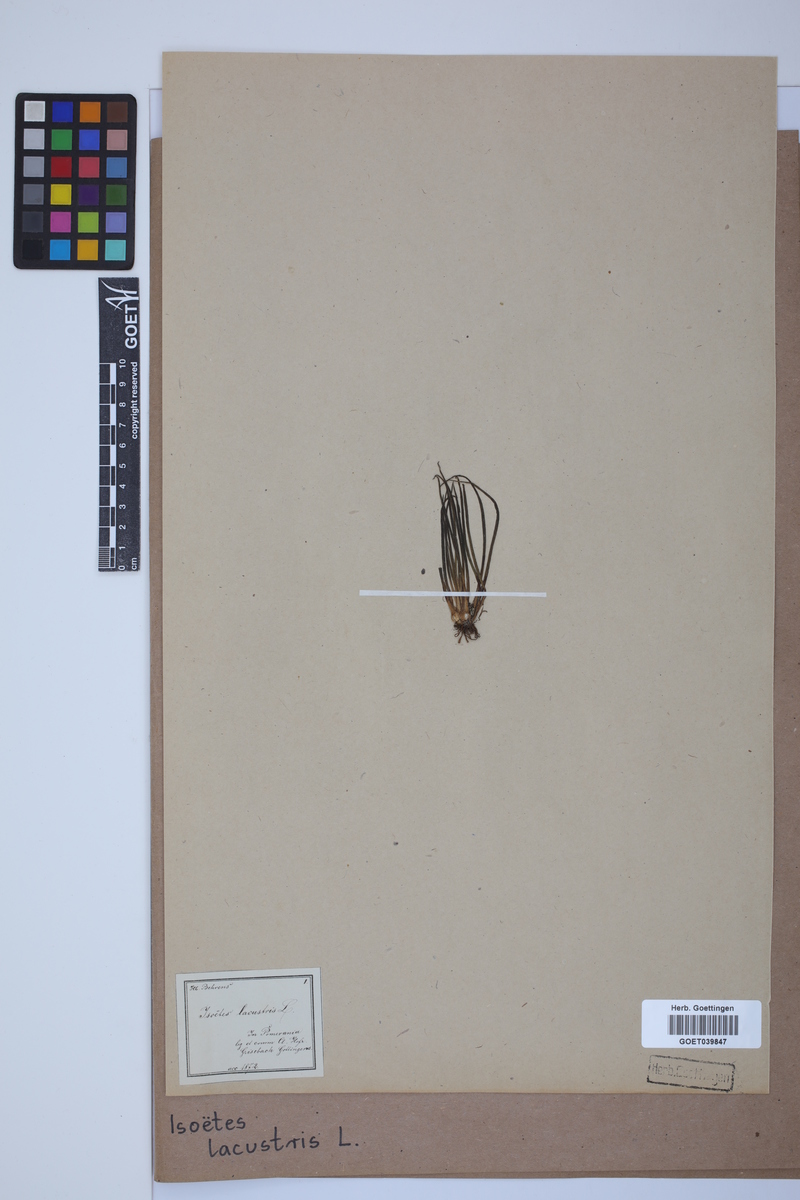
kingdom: Plantae
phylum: Tracheophyta
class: Lycopodiopsida
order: Isoetales
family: Isoetaceae
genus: Isoetes
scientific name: Isoetes lacustris
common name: Common quillwort
